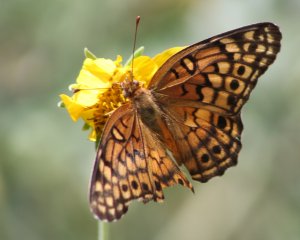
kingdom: Animalia
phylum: Arthropoda
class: Insecta
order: Lepidoptera
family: Nymphalidae
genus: Euptoieta
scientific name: Euptoieta claudia
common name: Variegated Fritillary
